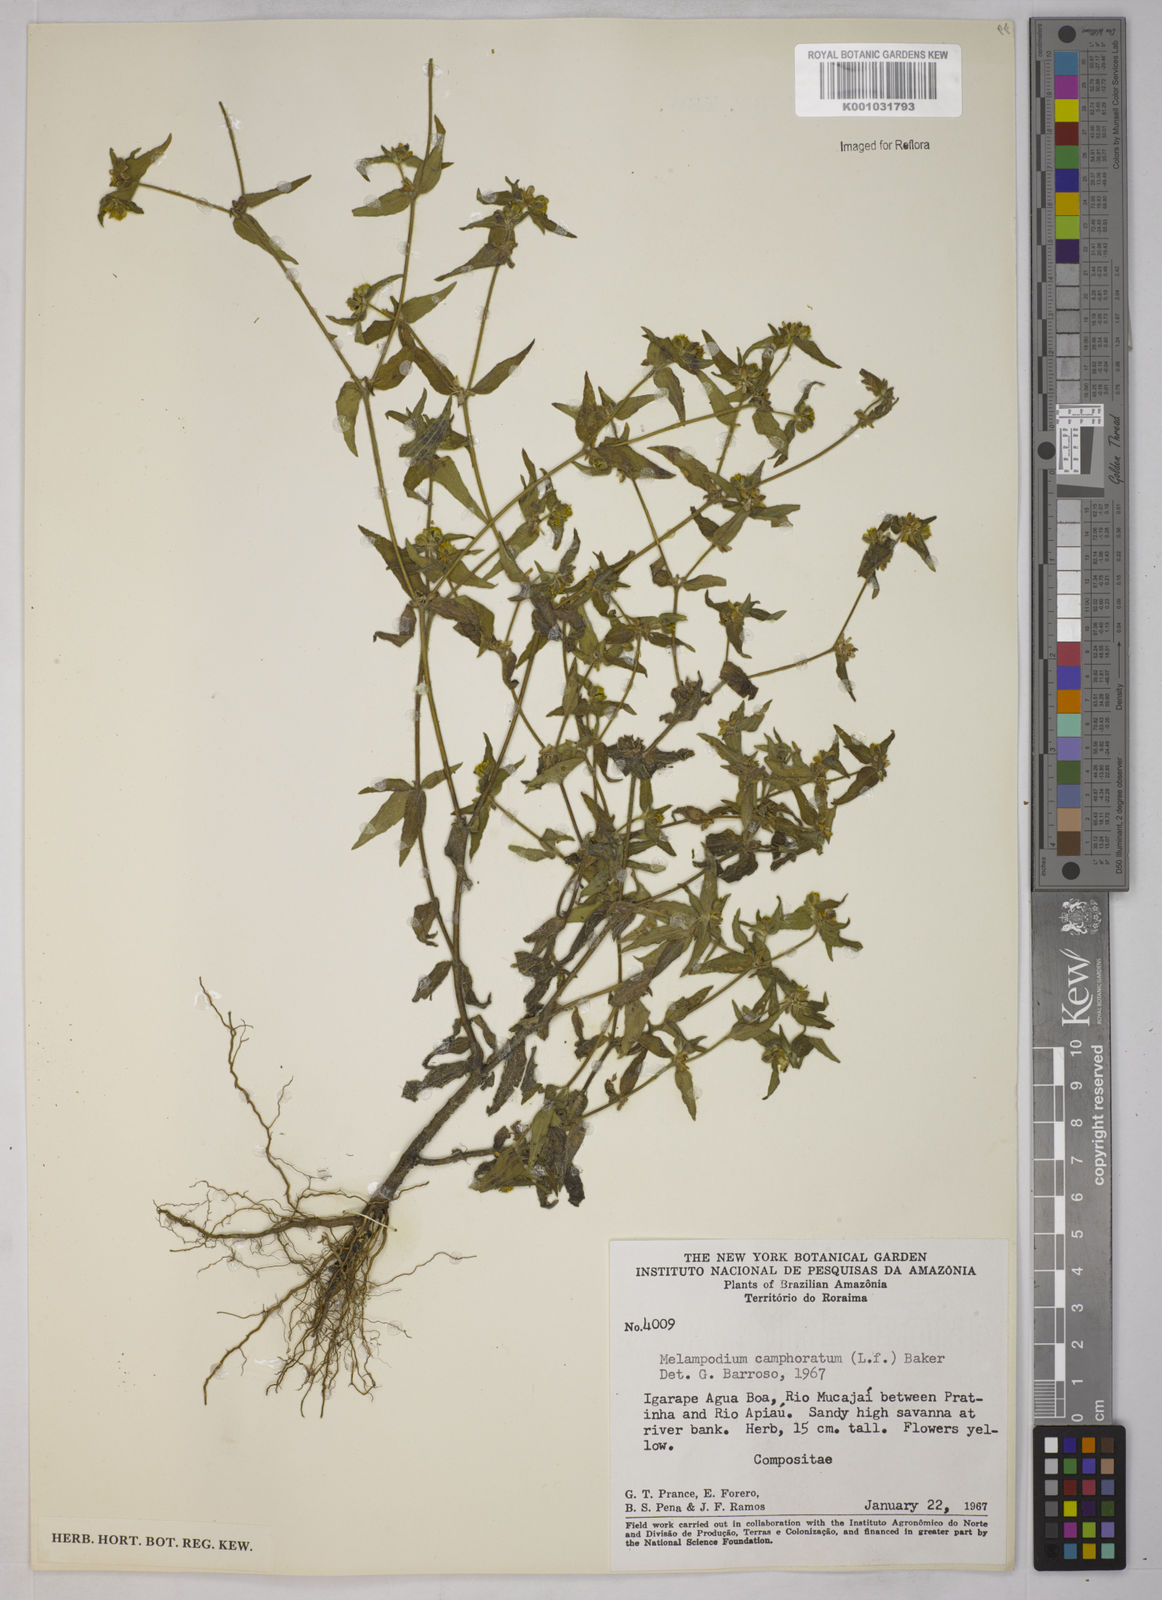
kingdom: Plantae
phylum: Tracheophyta
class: Magnoliopsida
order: Asterales
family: Asteraceae
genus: Unxia
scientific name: Unxia camphorata
